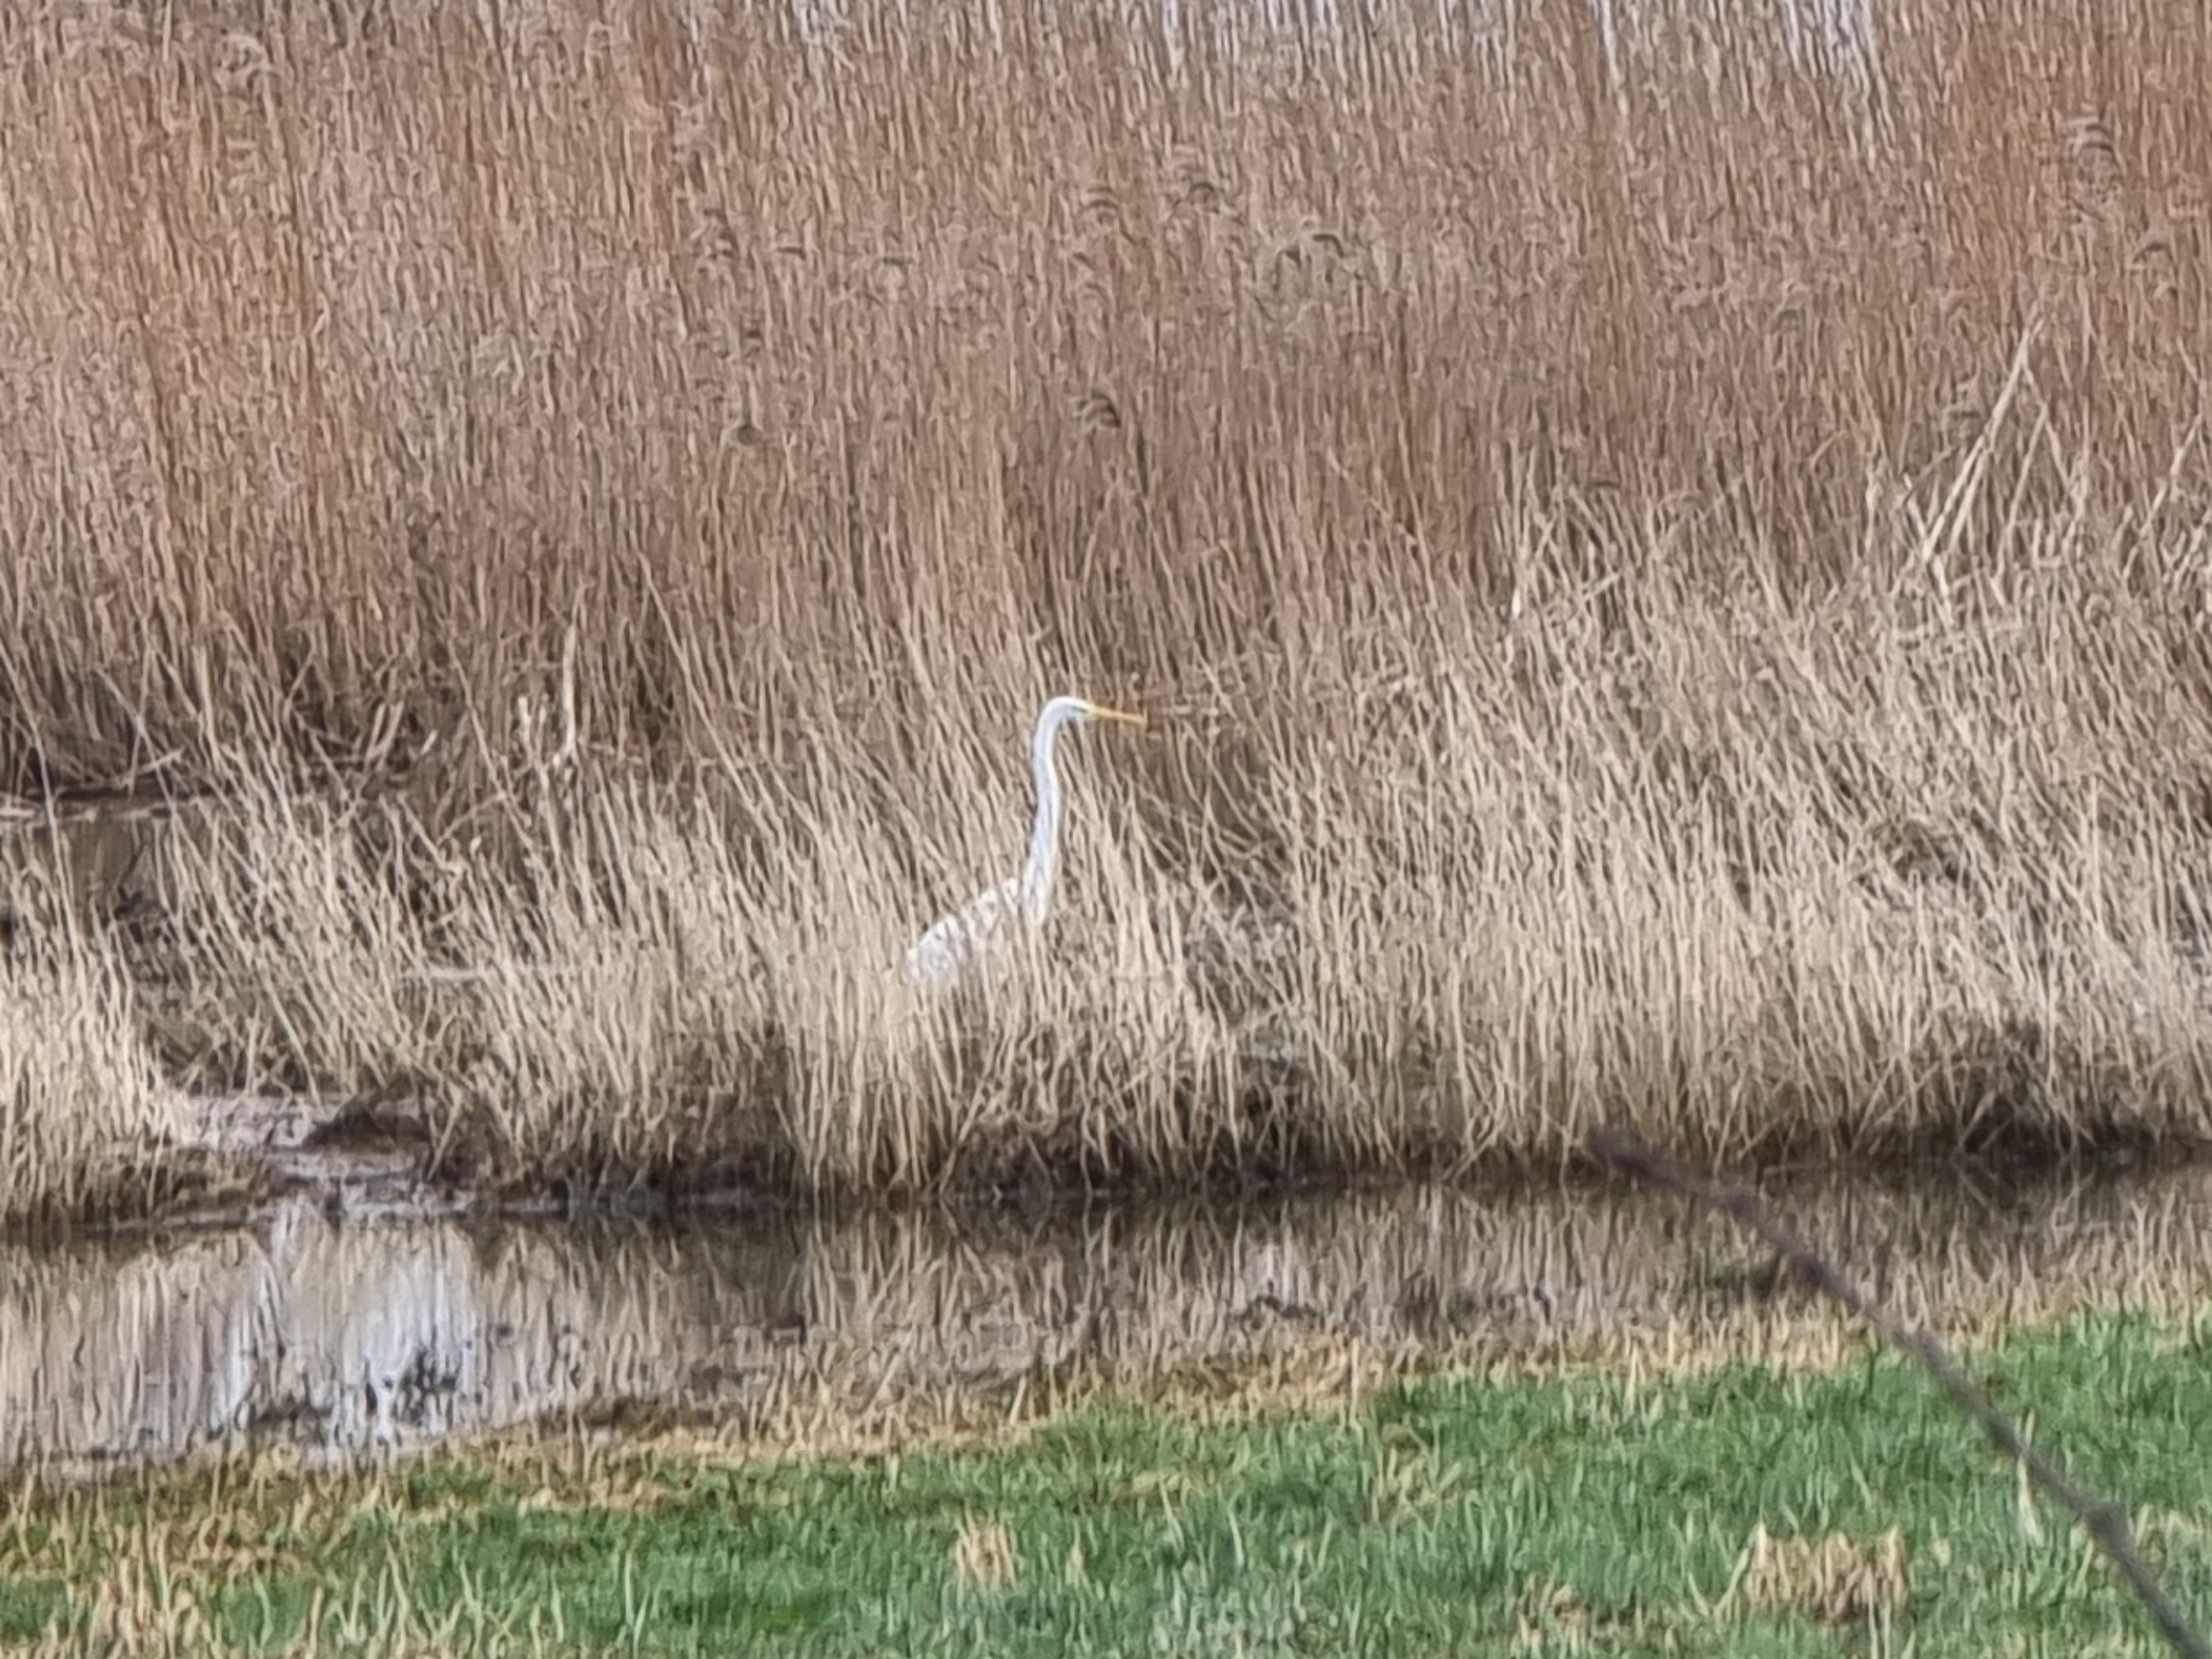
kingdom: Animalia
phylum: Chordata
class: Aves
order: Pelecaniformes
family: Ardeidae
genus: Ardea
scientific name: Ardea alba
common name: Sølvhejre
